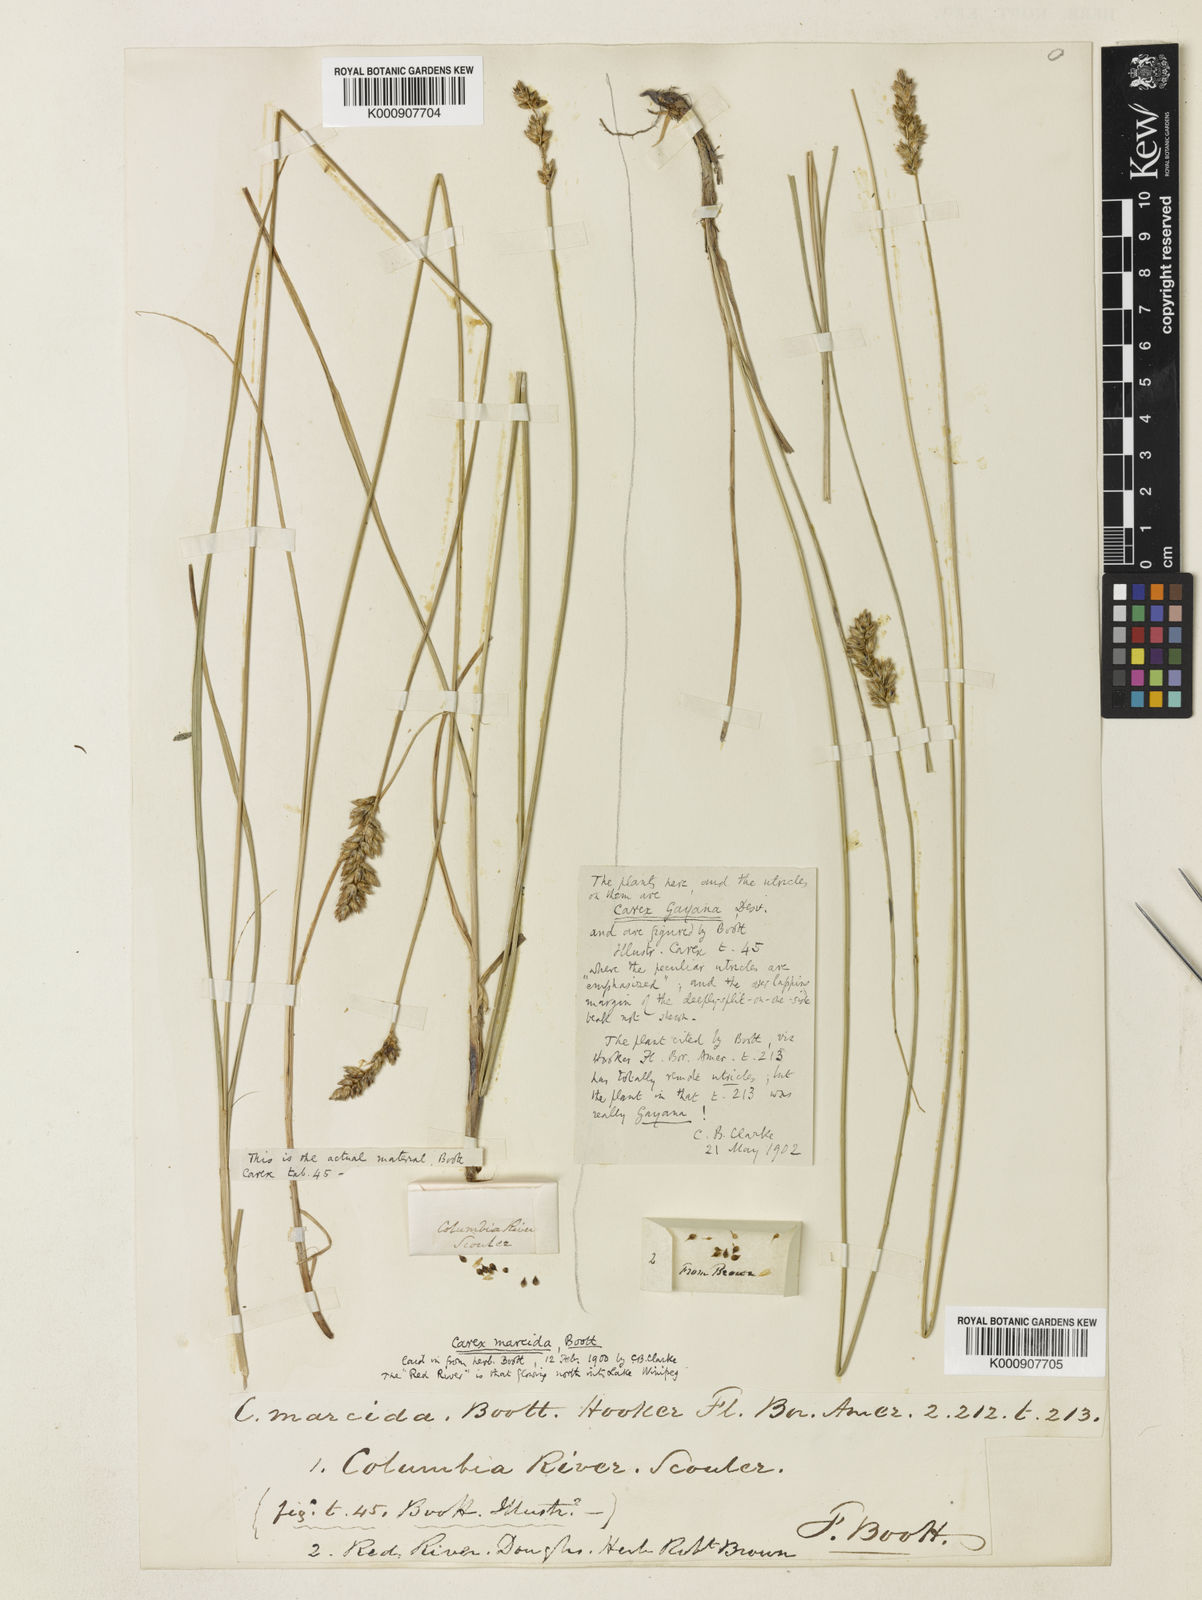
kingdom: Plantae
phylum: Tracheophyta
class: Liliopsida
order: Poales
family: Cyperaceae
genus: Carex
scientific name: Carex praegracilis
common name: Black creeper sedge
